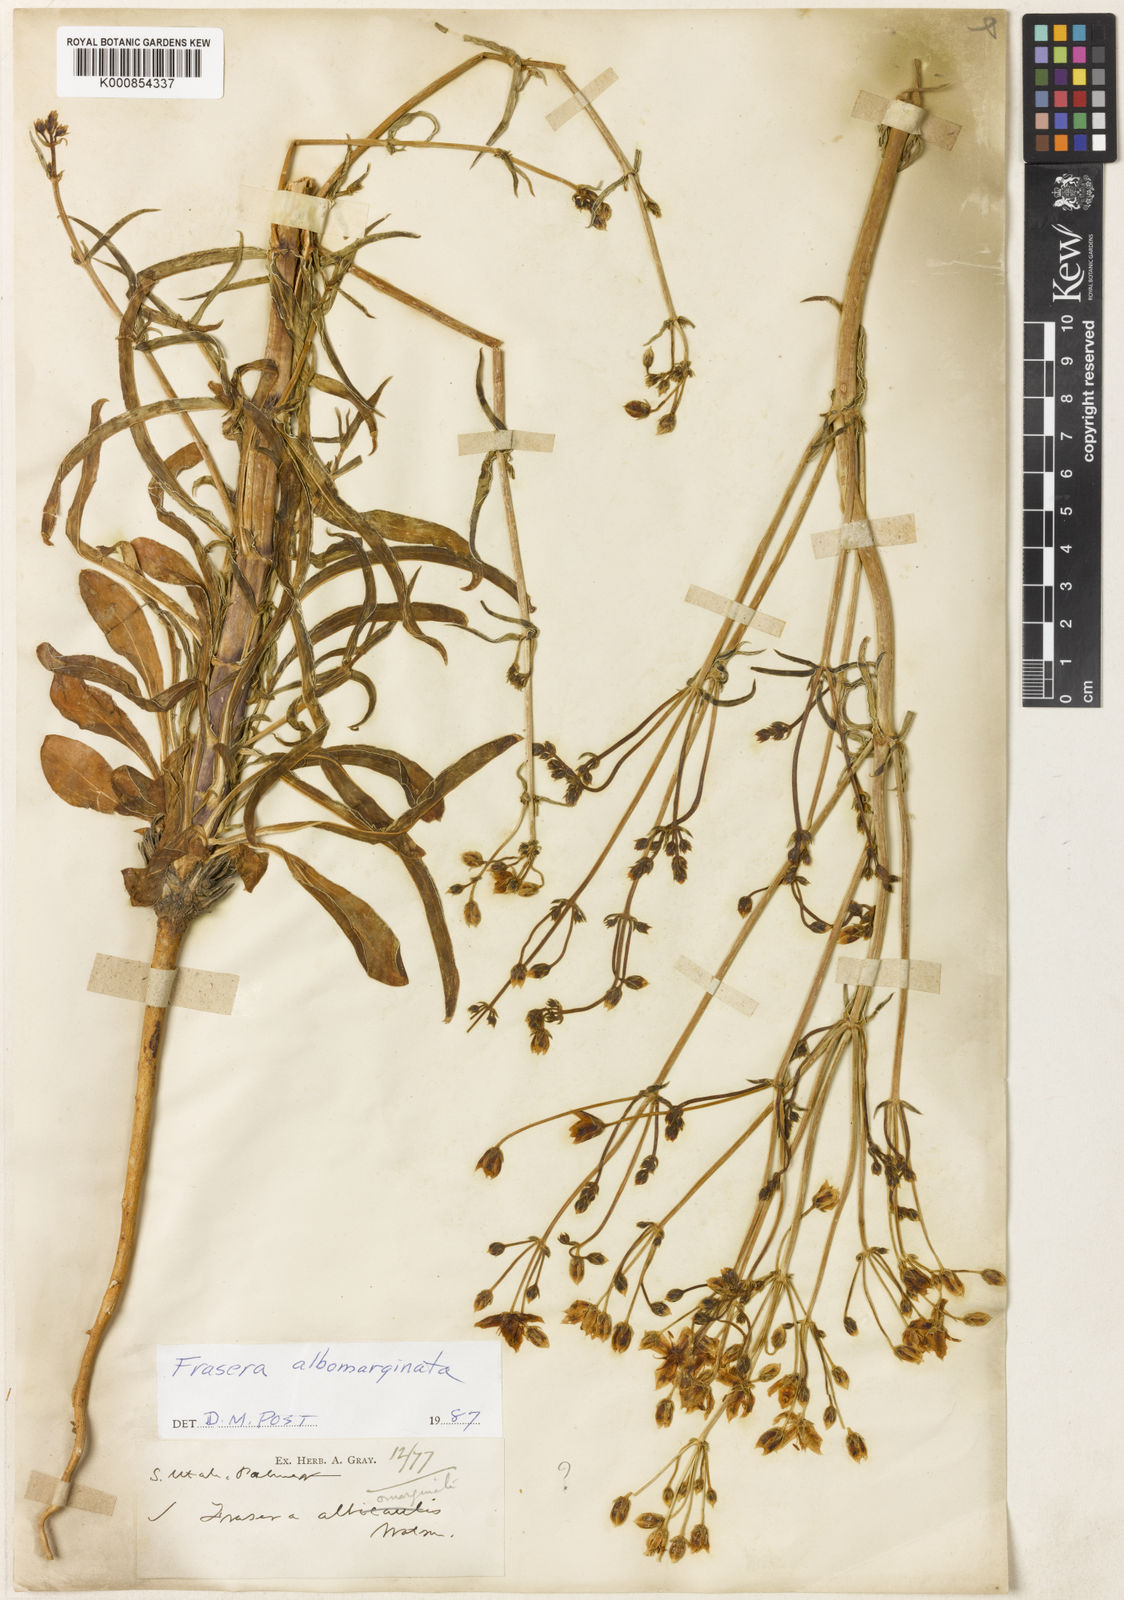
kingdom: Plantae
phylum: Tracheophyta
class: Magnoliopsida
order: Gentianales
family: Gentianaceae
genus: Frasera
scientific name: Frasera albomarginata
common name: Desert frasera
